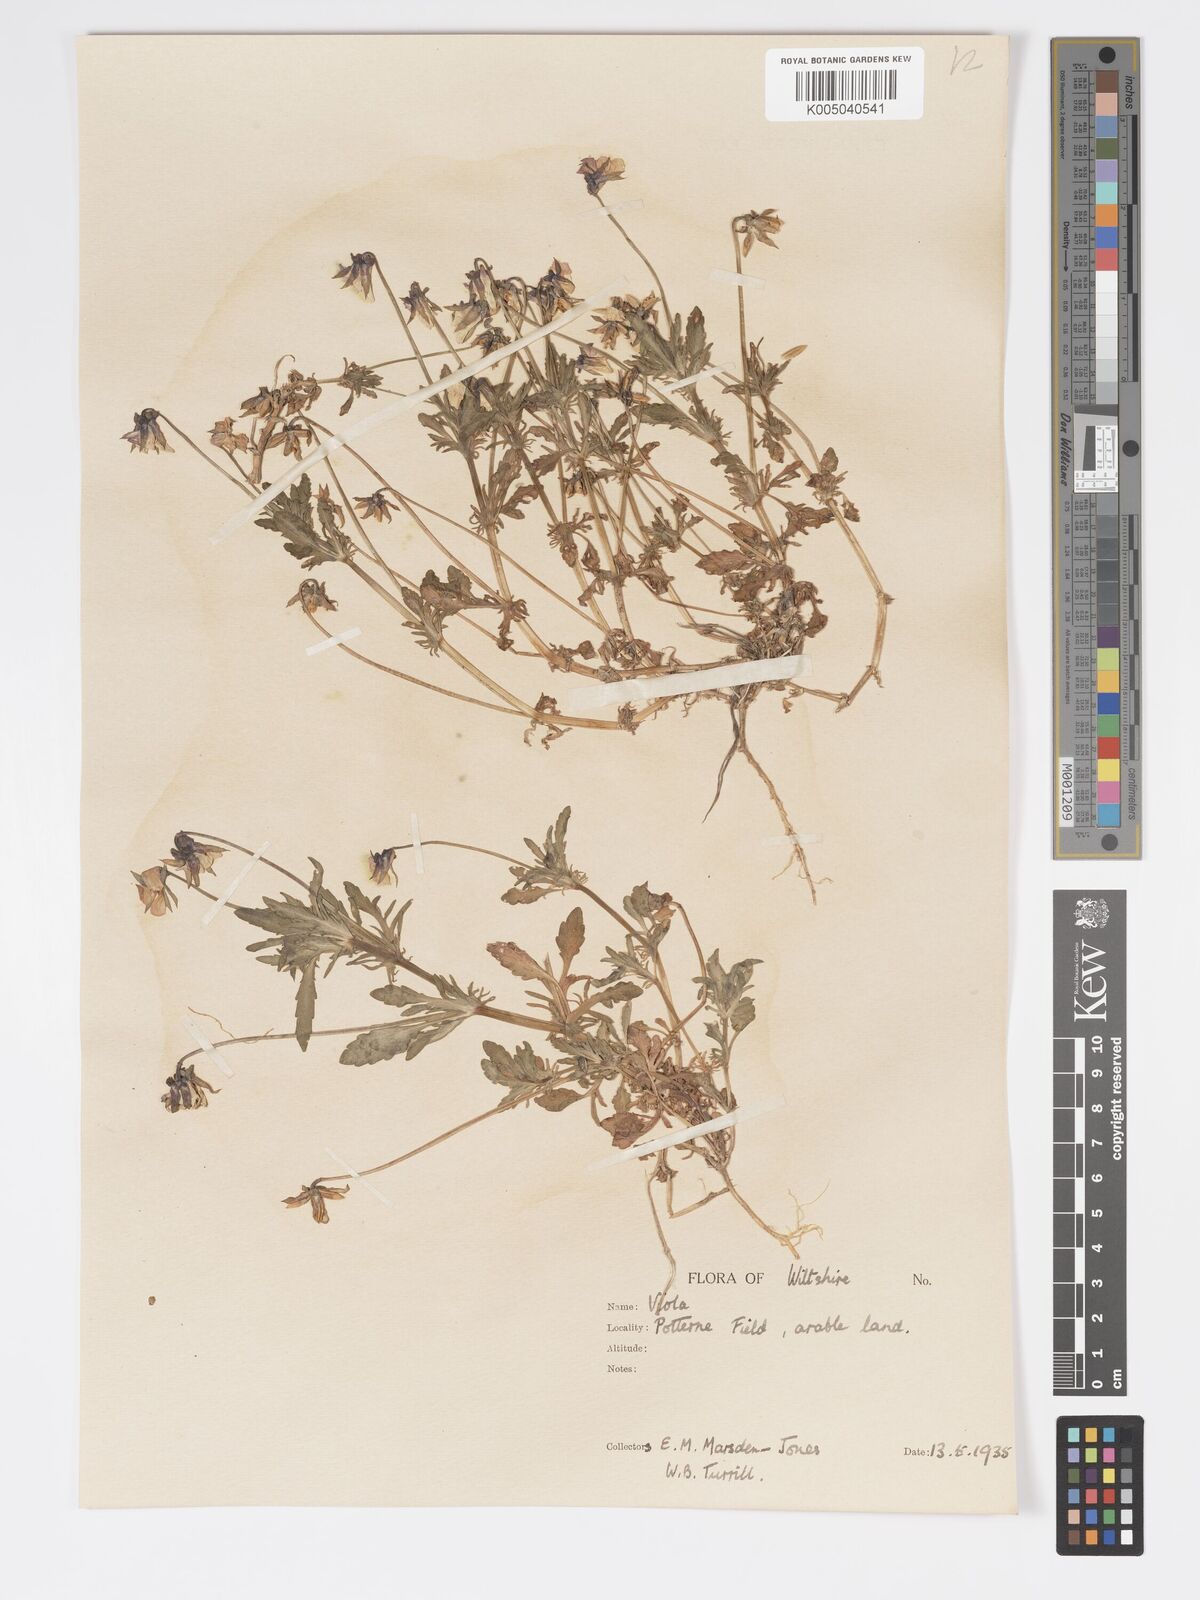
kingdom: Plantae
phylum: Tracheophyta
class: Magnoliopsida
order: Malpighiales
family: Violaceae
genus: Viola
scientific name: Viola
